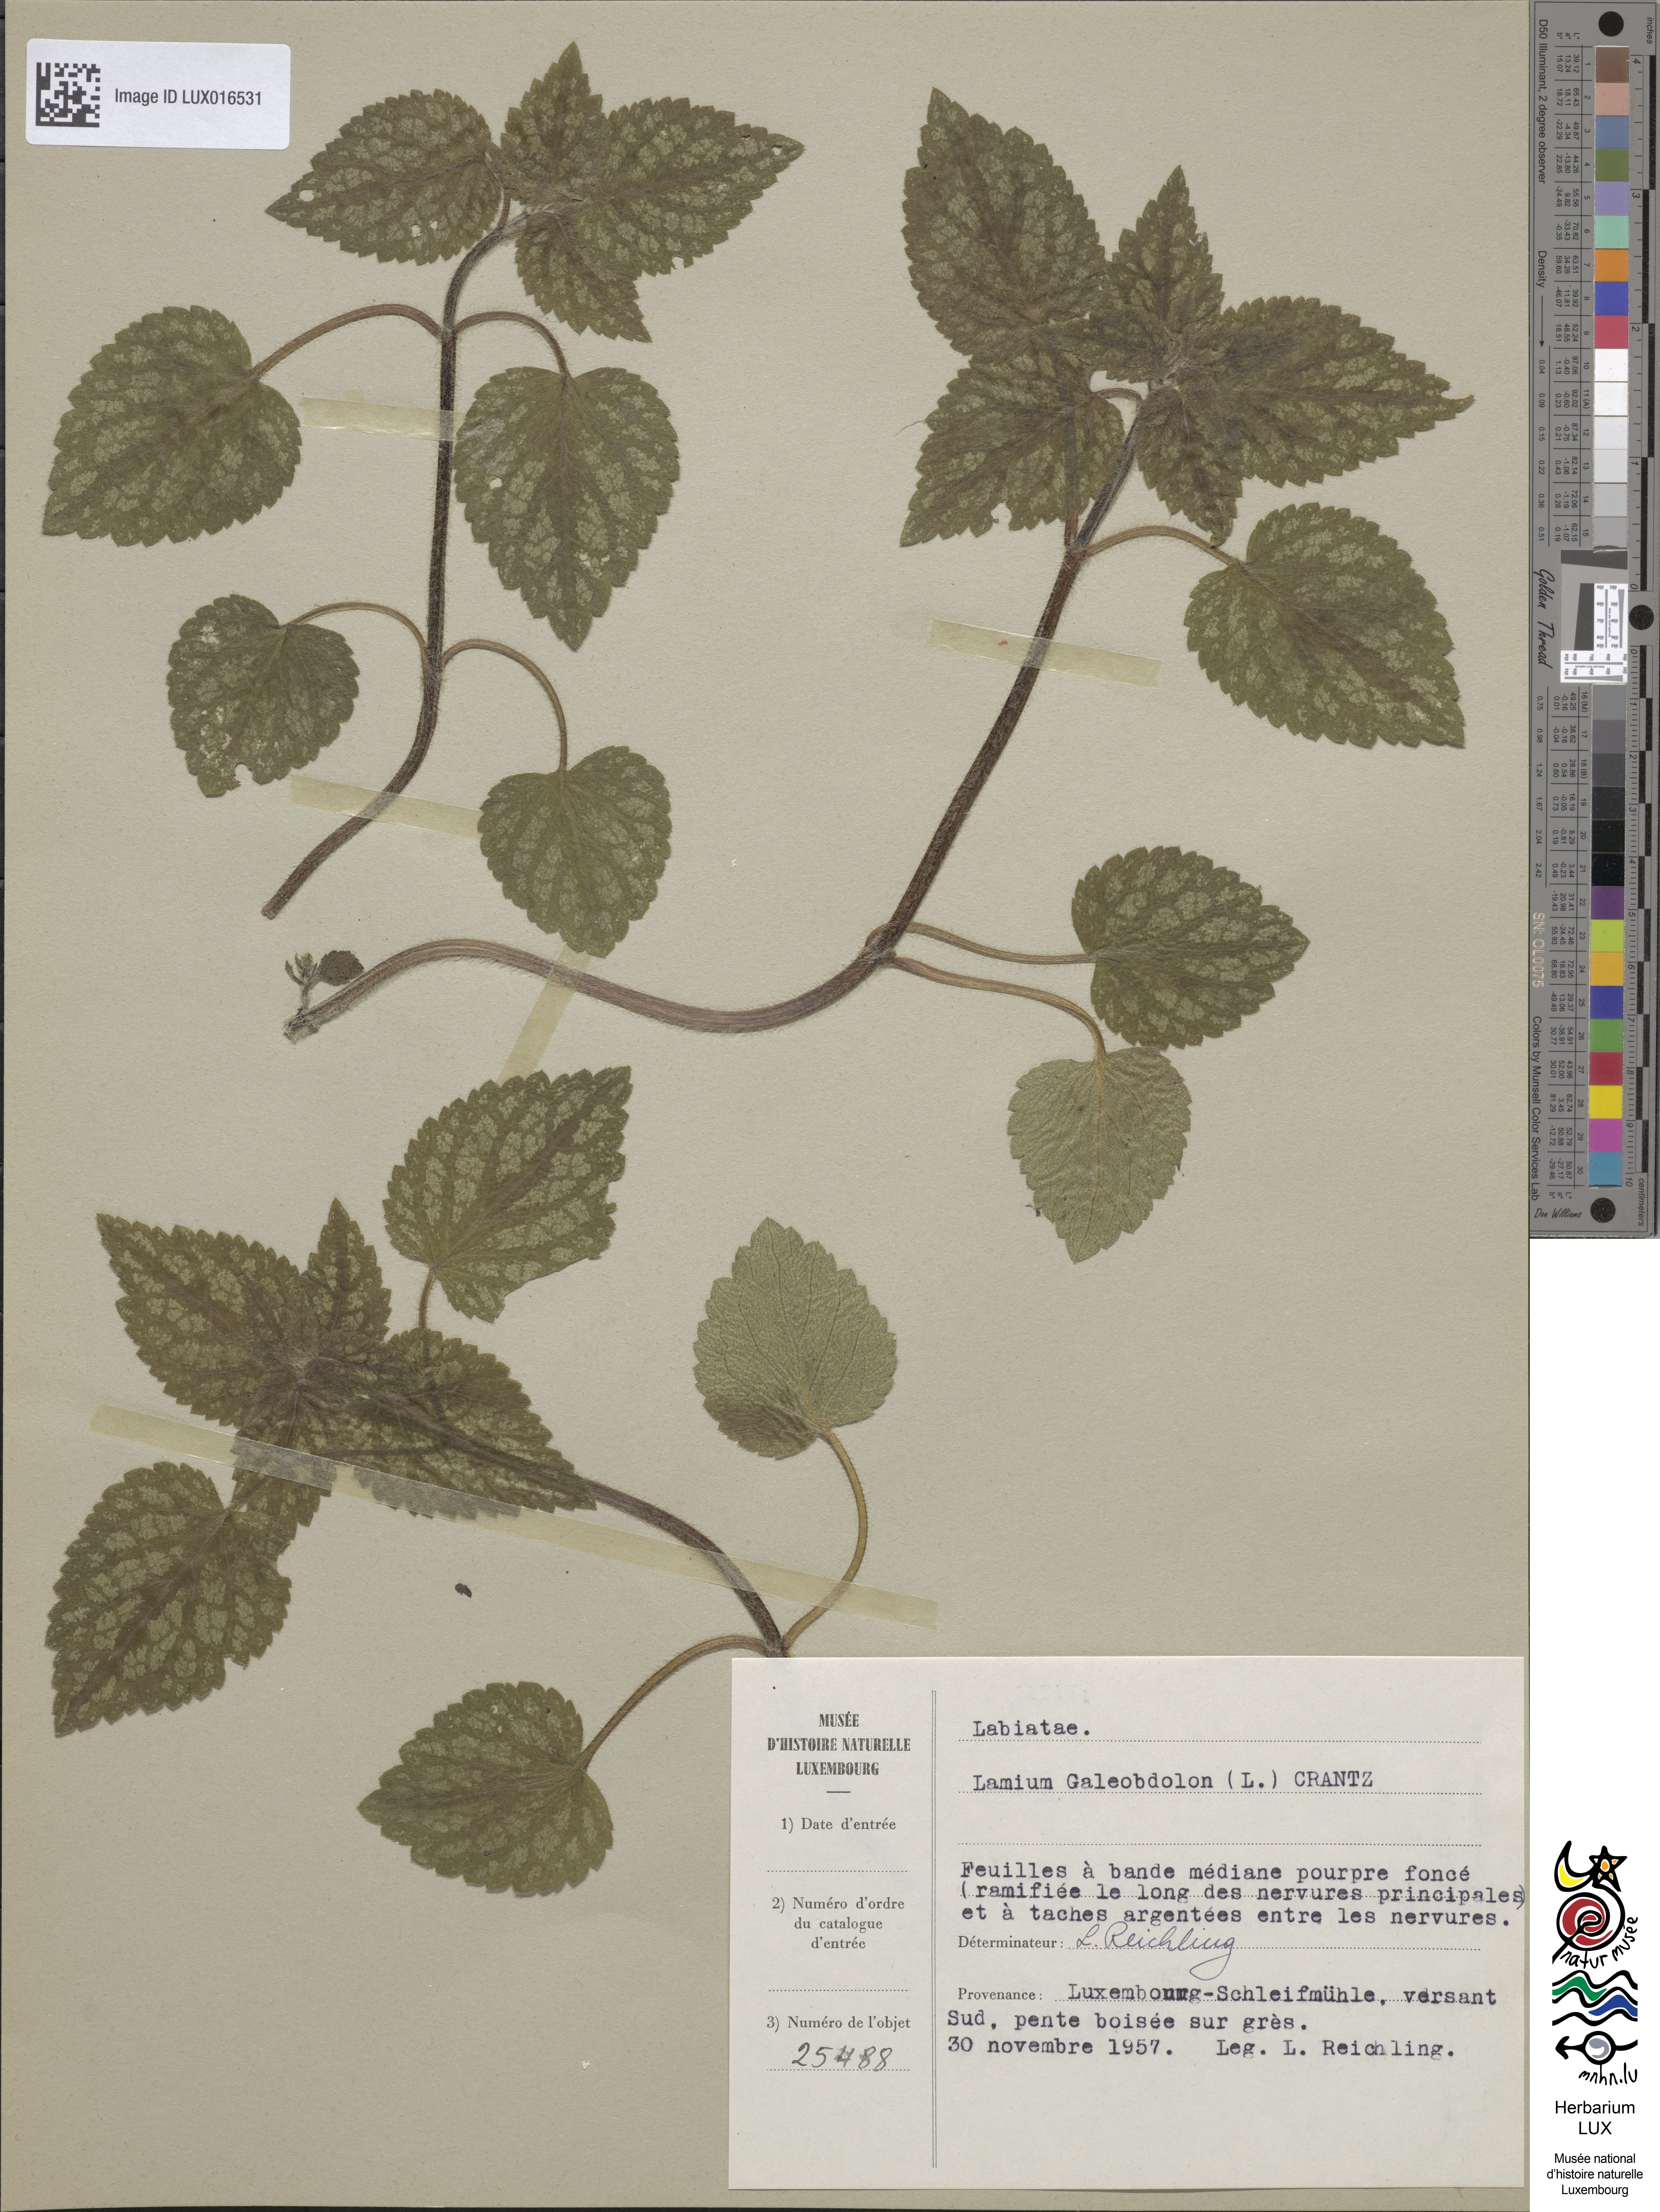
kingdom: Plantae
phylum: Tracheophyta
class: Magnoliopsida
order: Lamiales
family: Lamiaceae
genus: Lamium
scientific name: Lamium galeobdolon
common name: Yellow archangel
